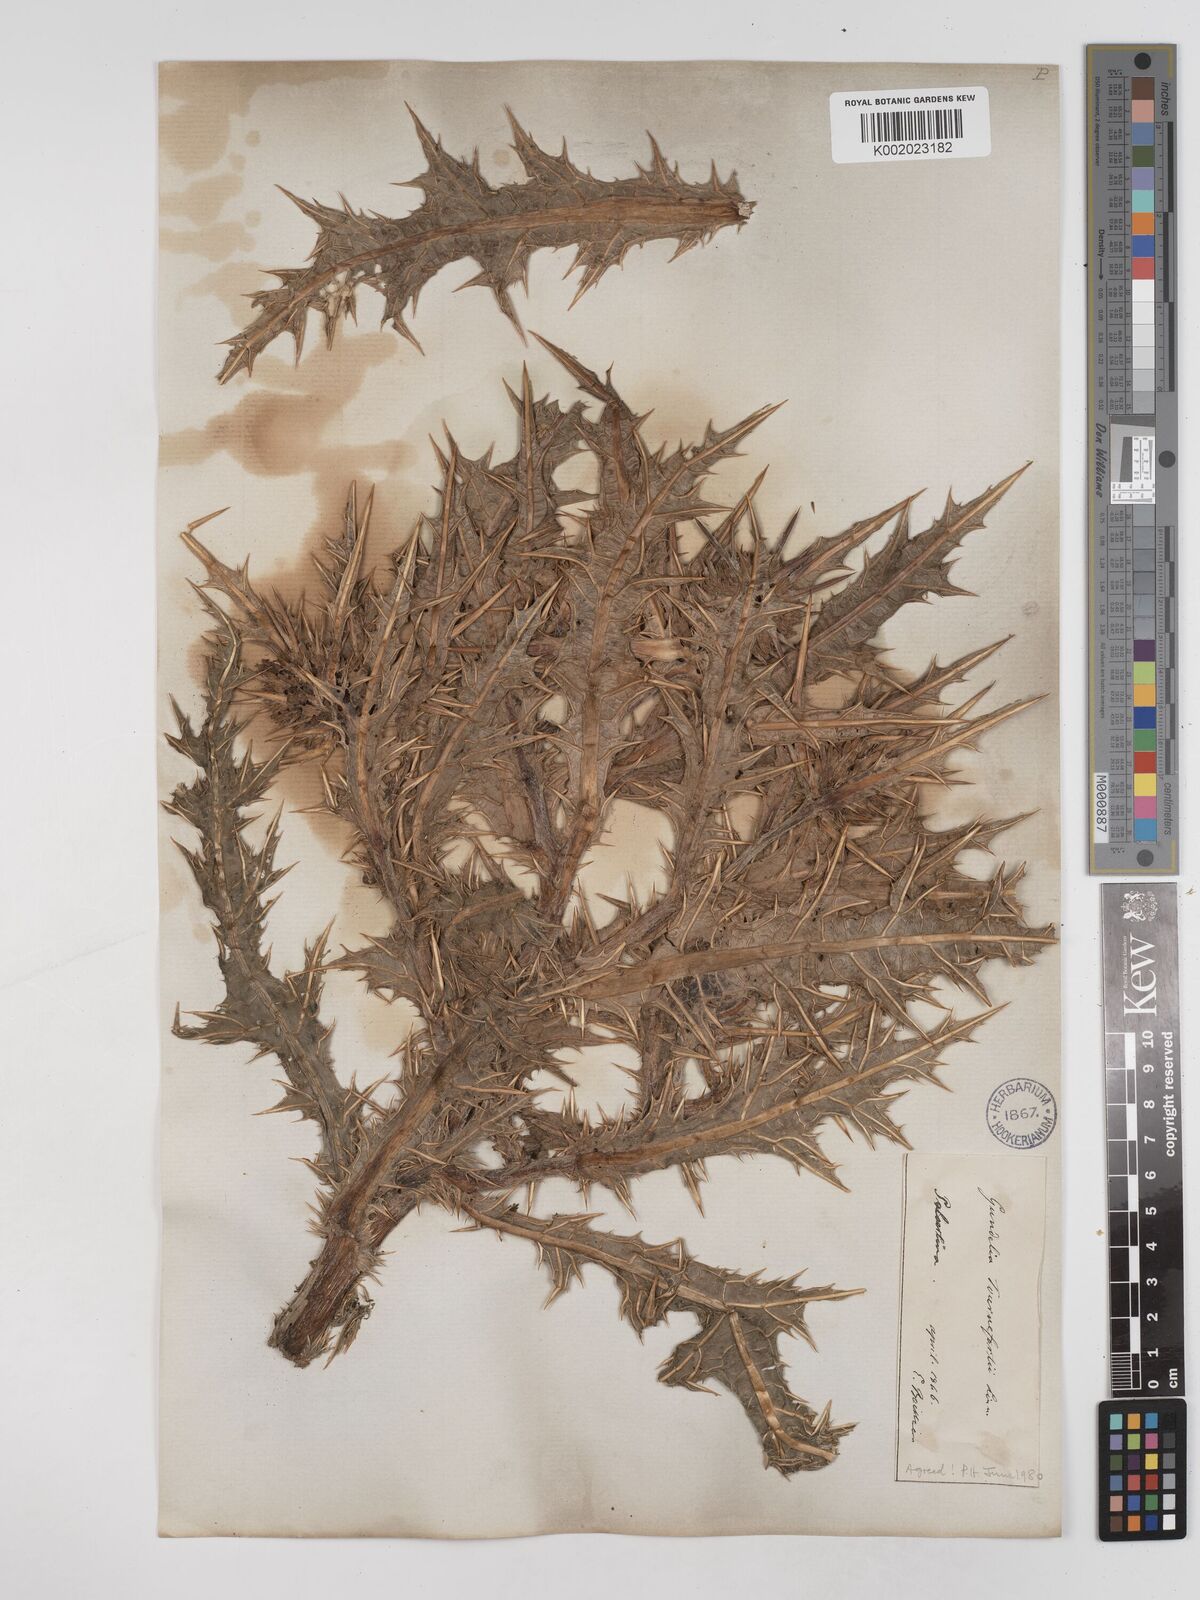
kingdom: Plantae
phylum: Tracheophyta
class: Magnoliopsida
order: Asterales
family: Asteraceae
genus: Gundelia
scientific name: Gundelia tournefortii
